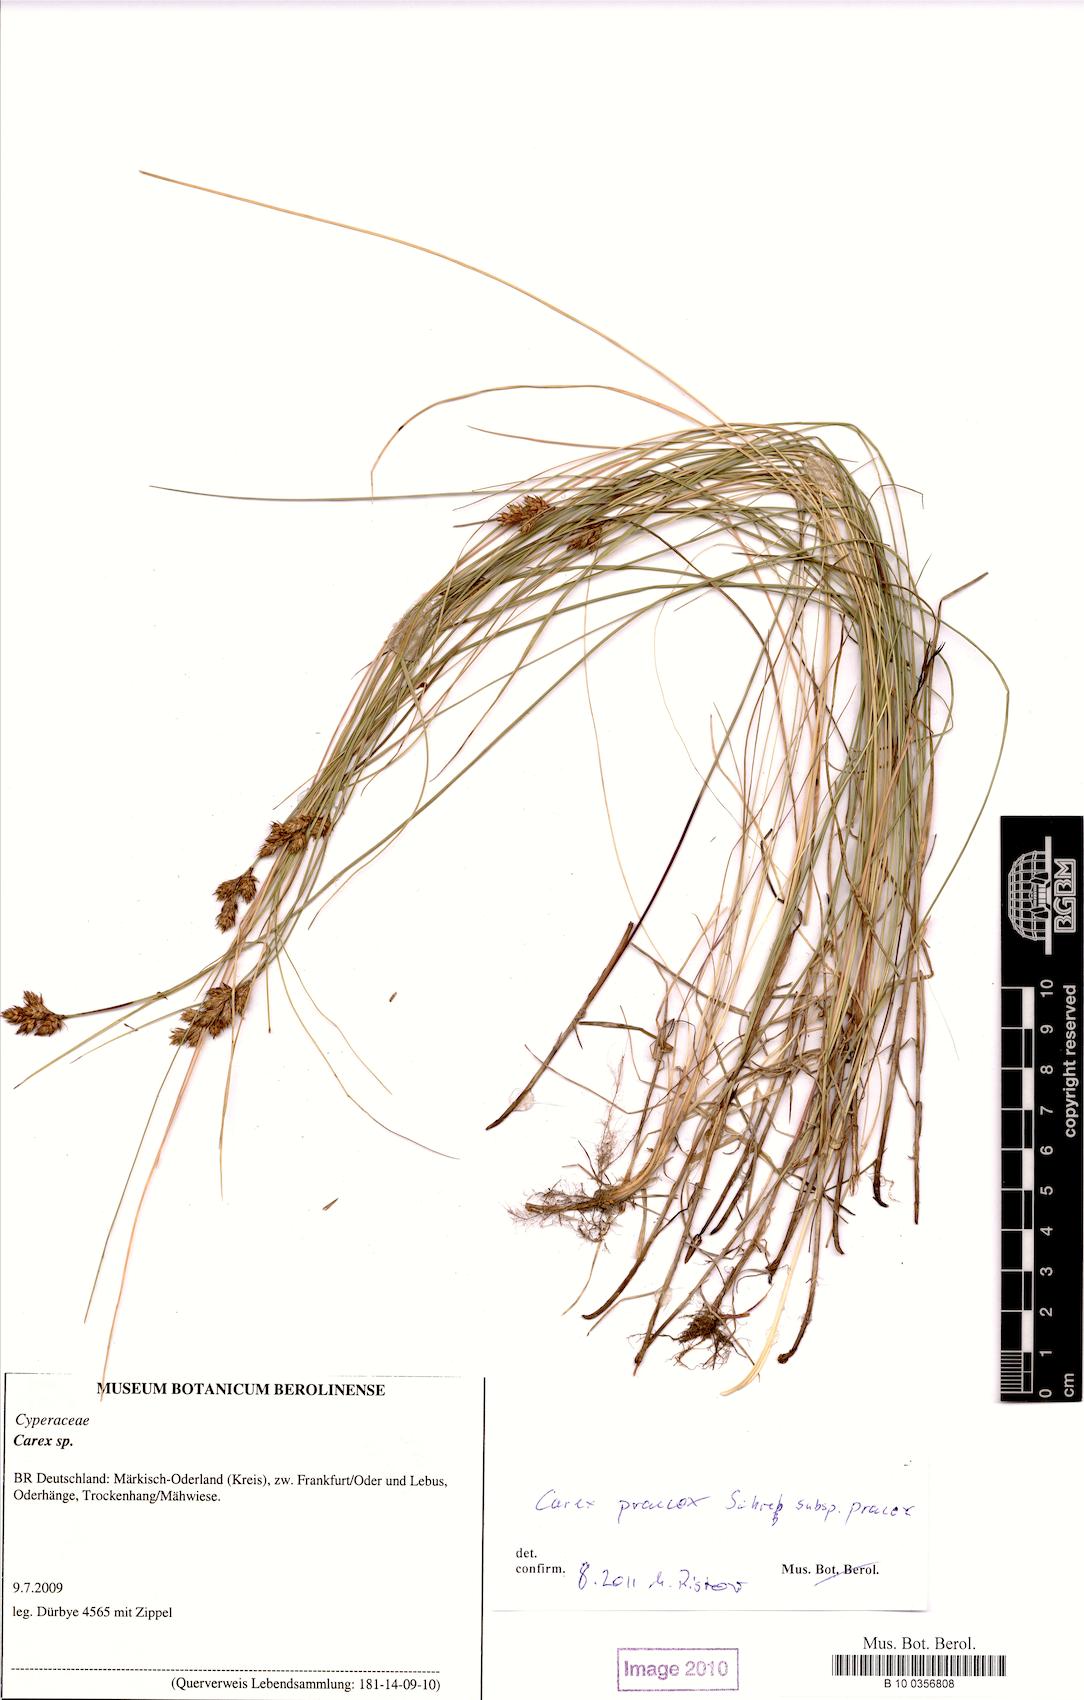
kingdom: Plantae
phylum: Tracheophyta
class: Liliopsida
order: Poales
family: Cyperaceae
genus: Carex
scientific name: Carex praecox
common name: Early sedge
